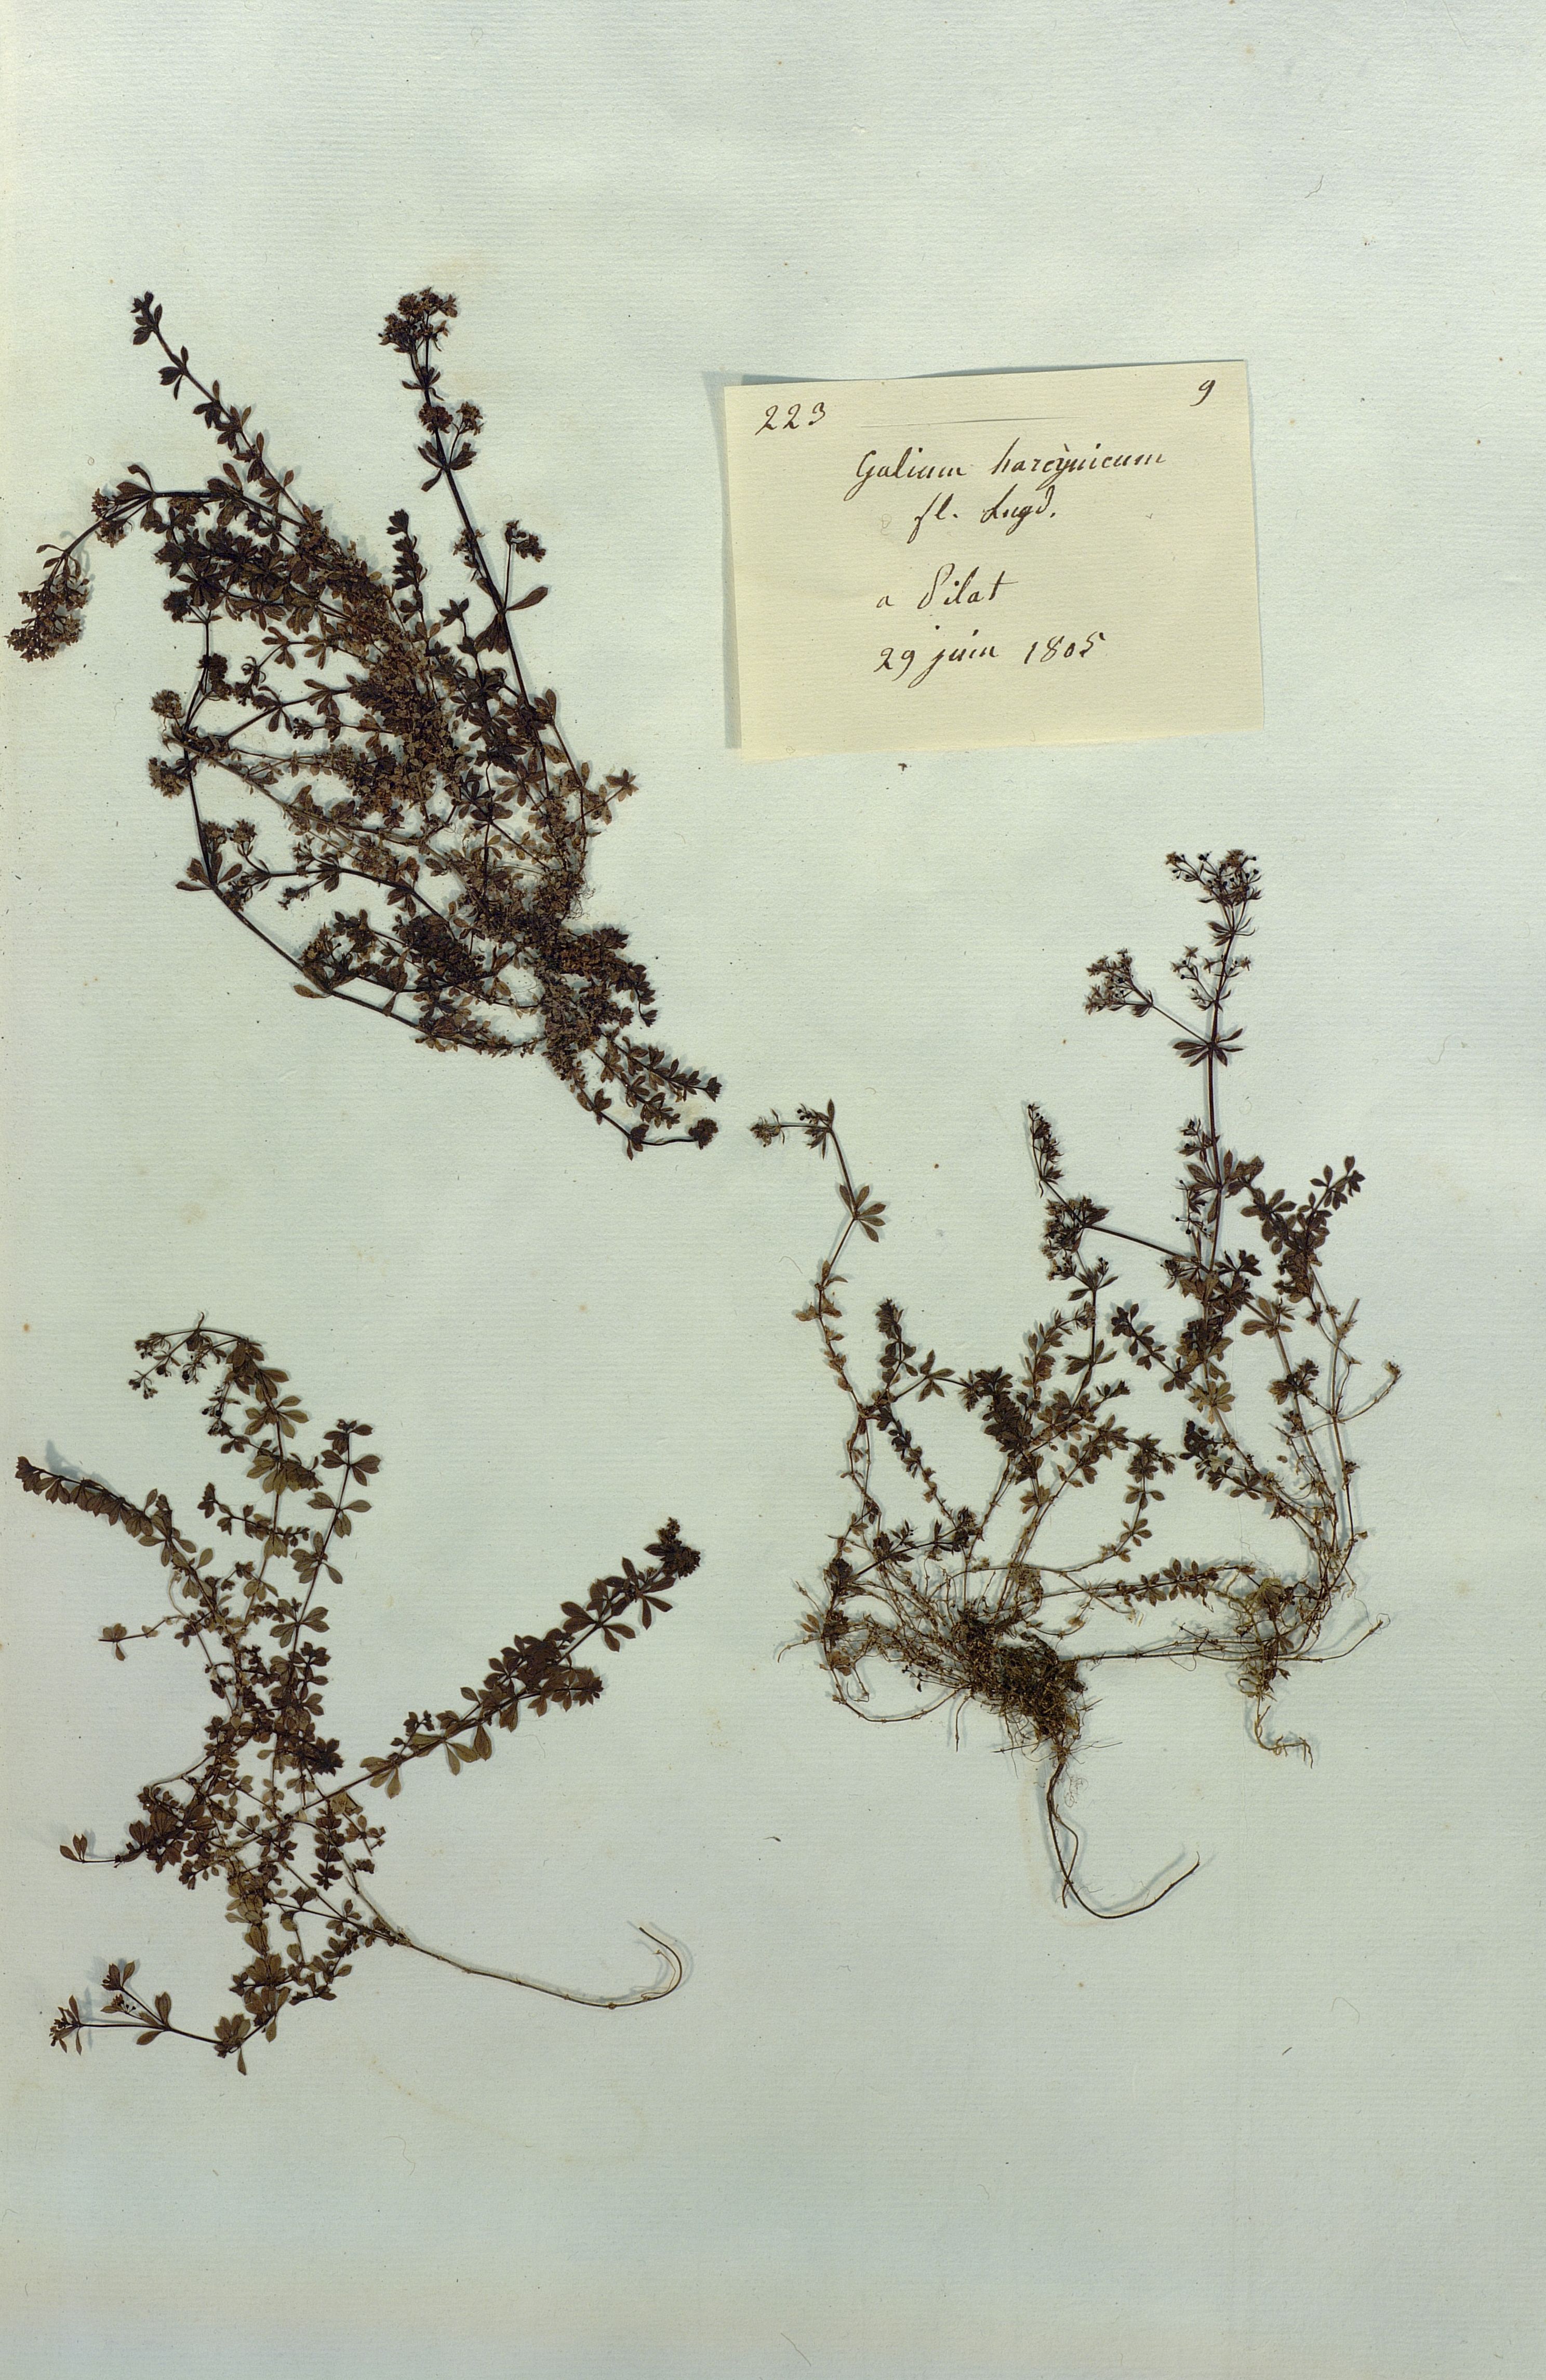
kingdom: Plantae
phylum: Tracheophyta
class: Magnoliopsida
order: Gentianales
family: Rubiaceae
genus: Galium
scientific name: Galium saxatile
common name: Heath bedstraw
